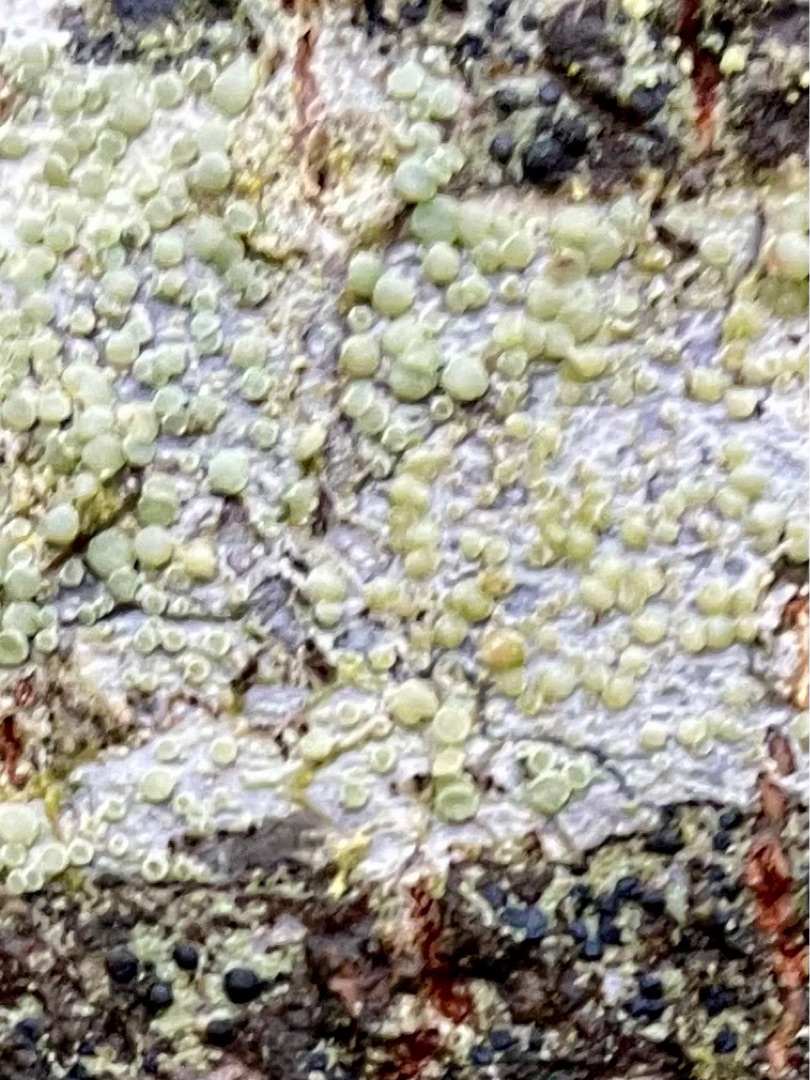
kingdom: Fungi
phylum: Ascomycota
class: Lecanoromycetes
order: Lecanorales
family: Lecanoraceae
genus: Glaucomaria
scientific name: Glaucomaria carpinea
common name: Hviddugget kantskivelav
